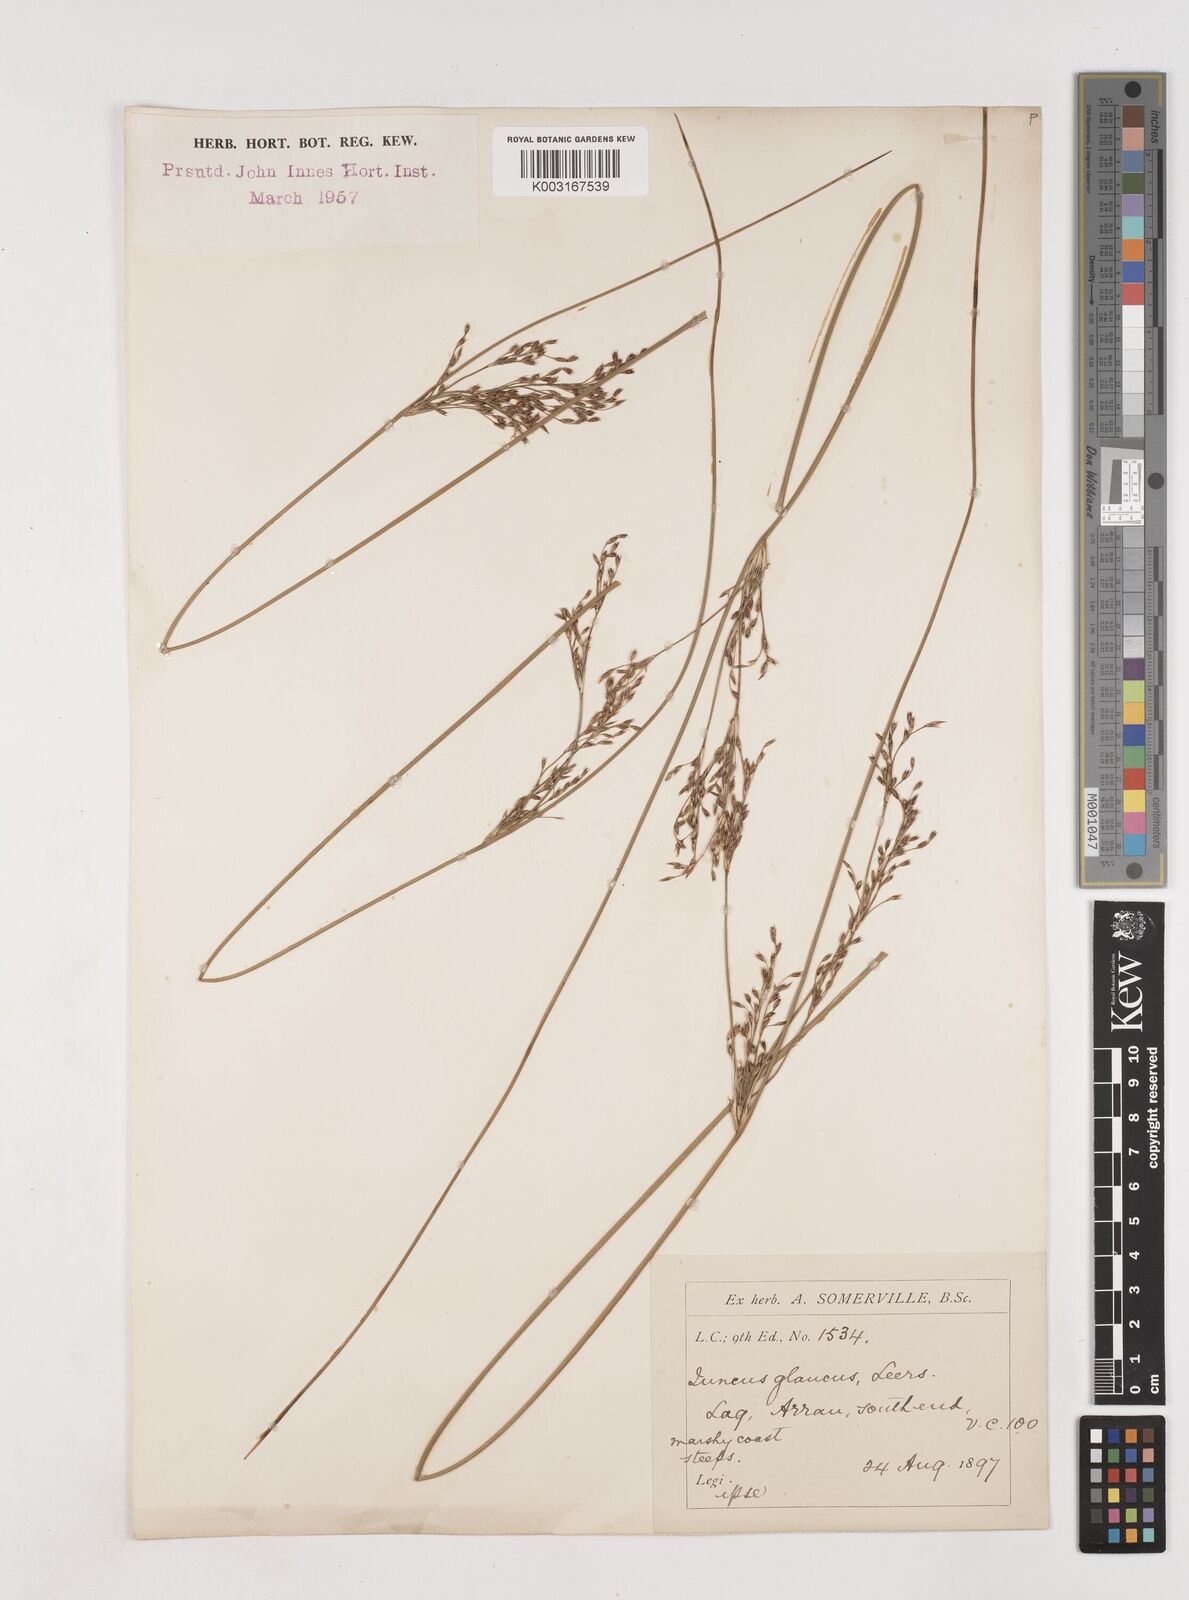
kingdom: Plantae
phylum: Tracheophyta
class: Liliopsida
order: Poales
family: Juncaceae
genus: Juncus
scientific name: Juncus inflexus
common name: Hard rush
